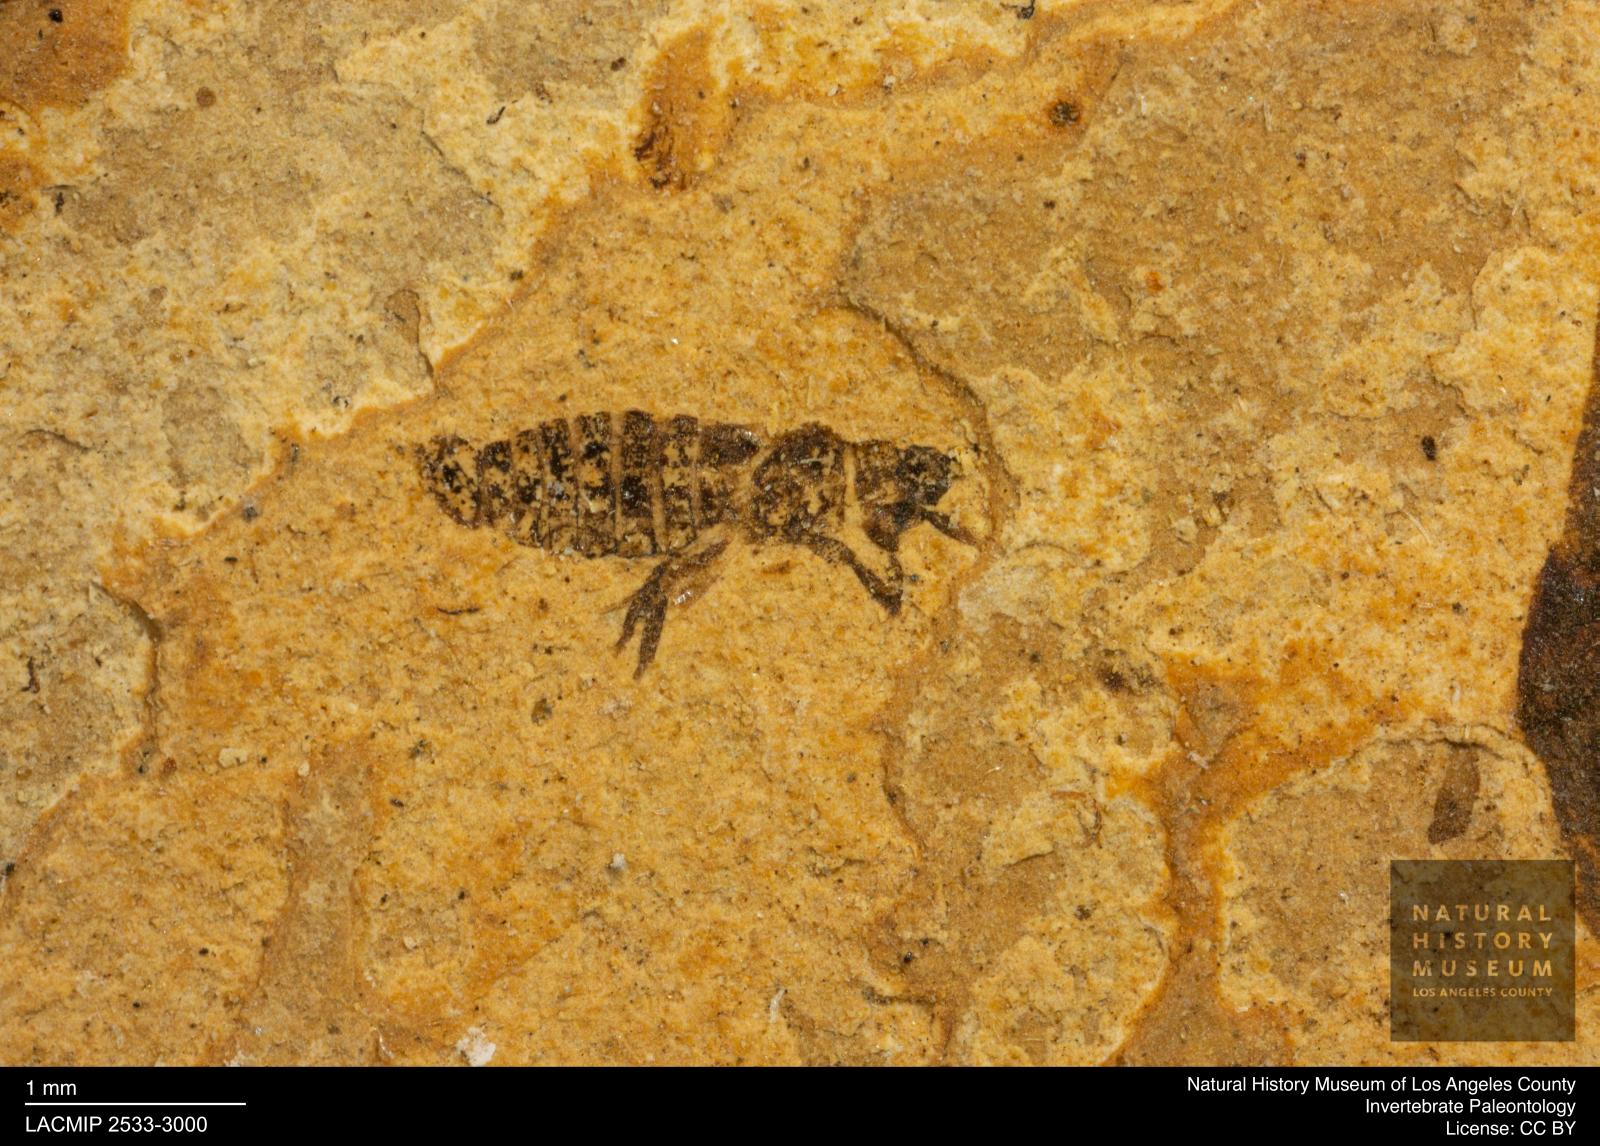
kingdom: Animalia
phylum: Arthropoda
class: Insecta
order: Thysanoptera
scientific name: Thysanoptera
